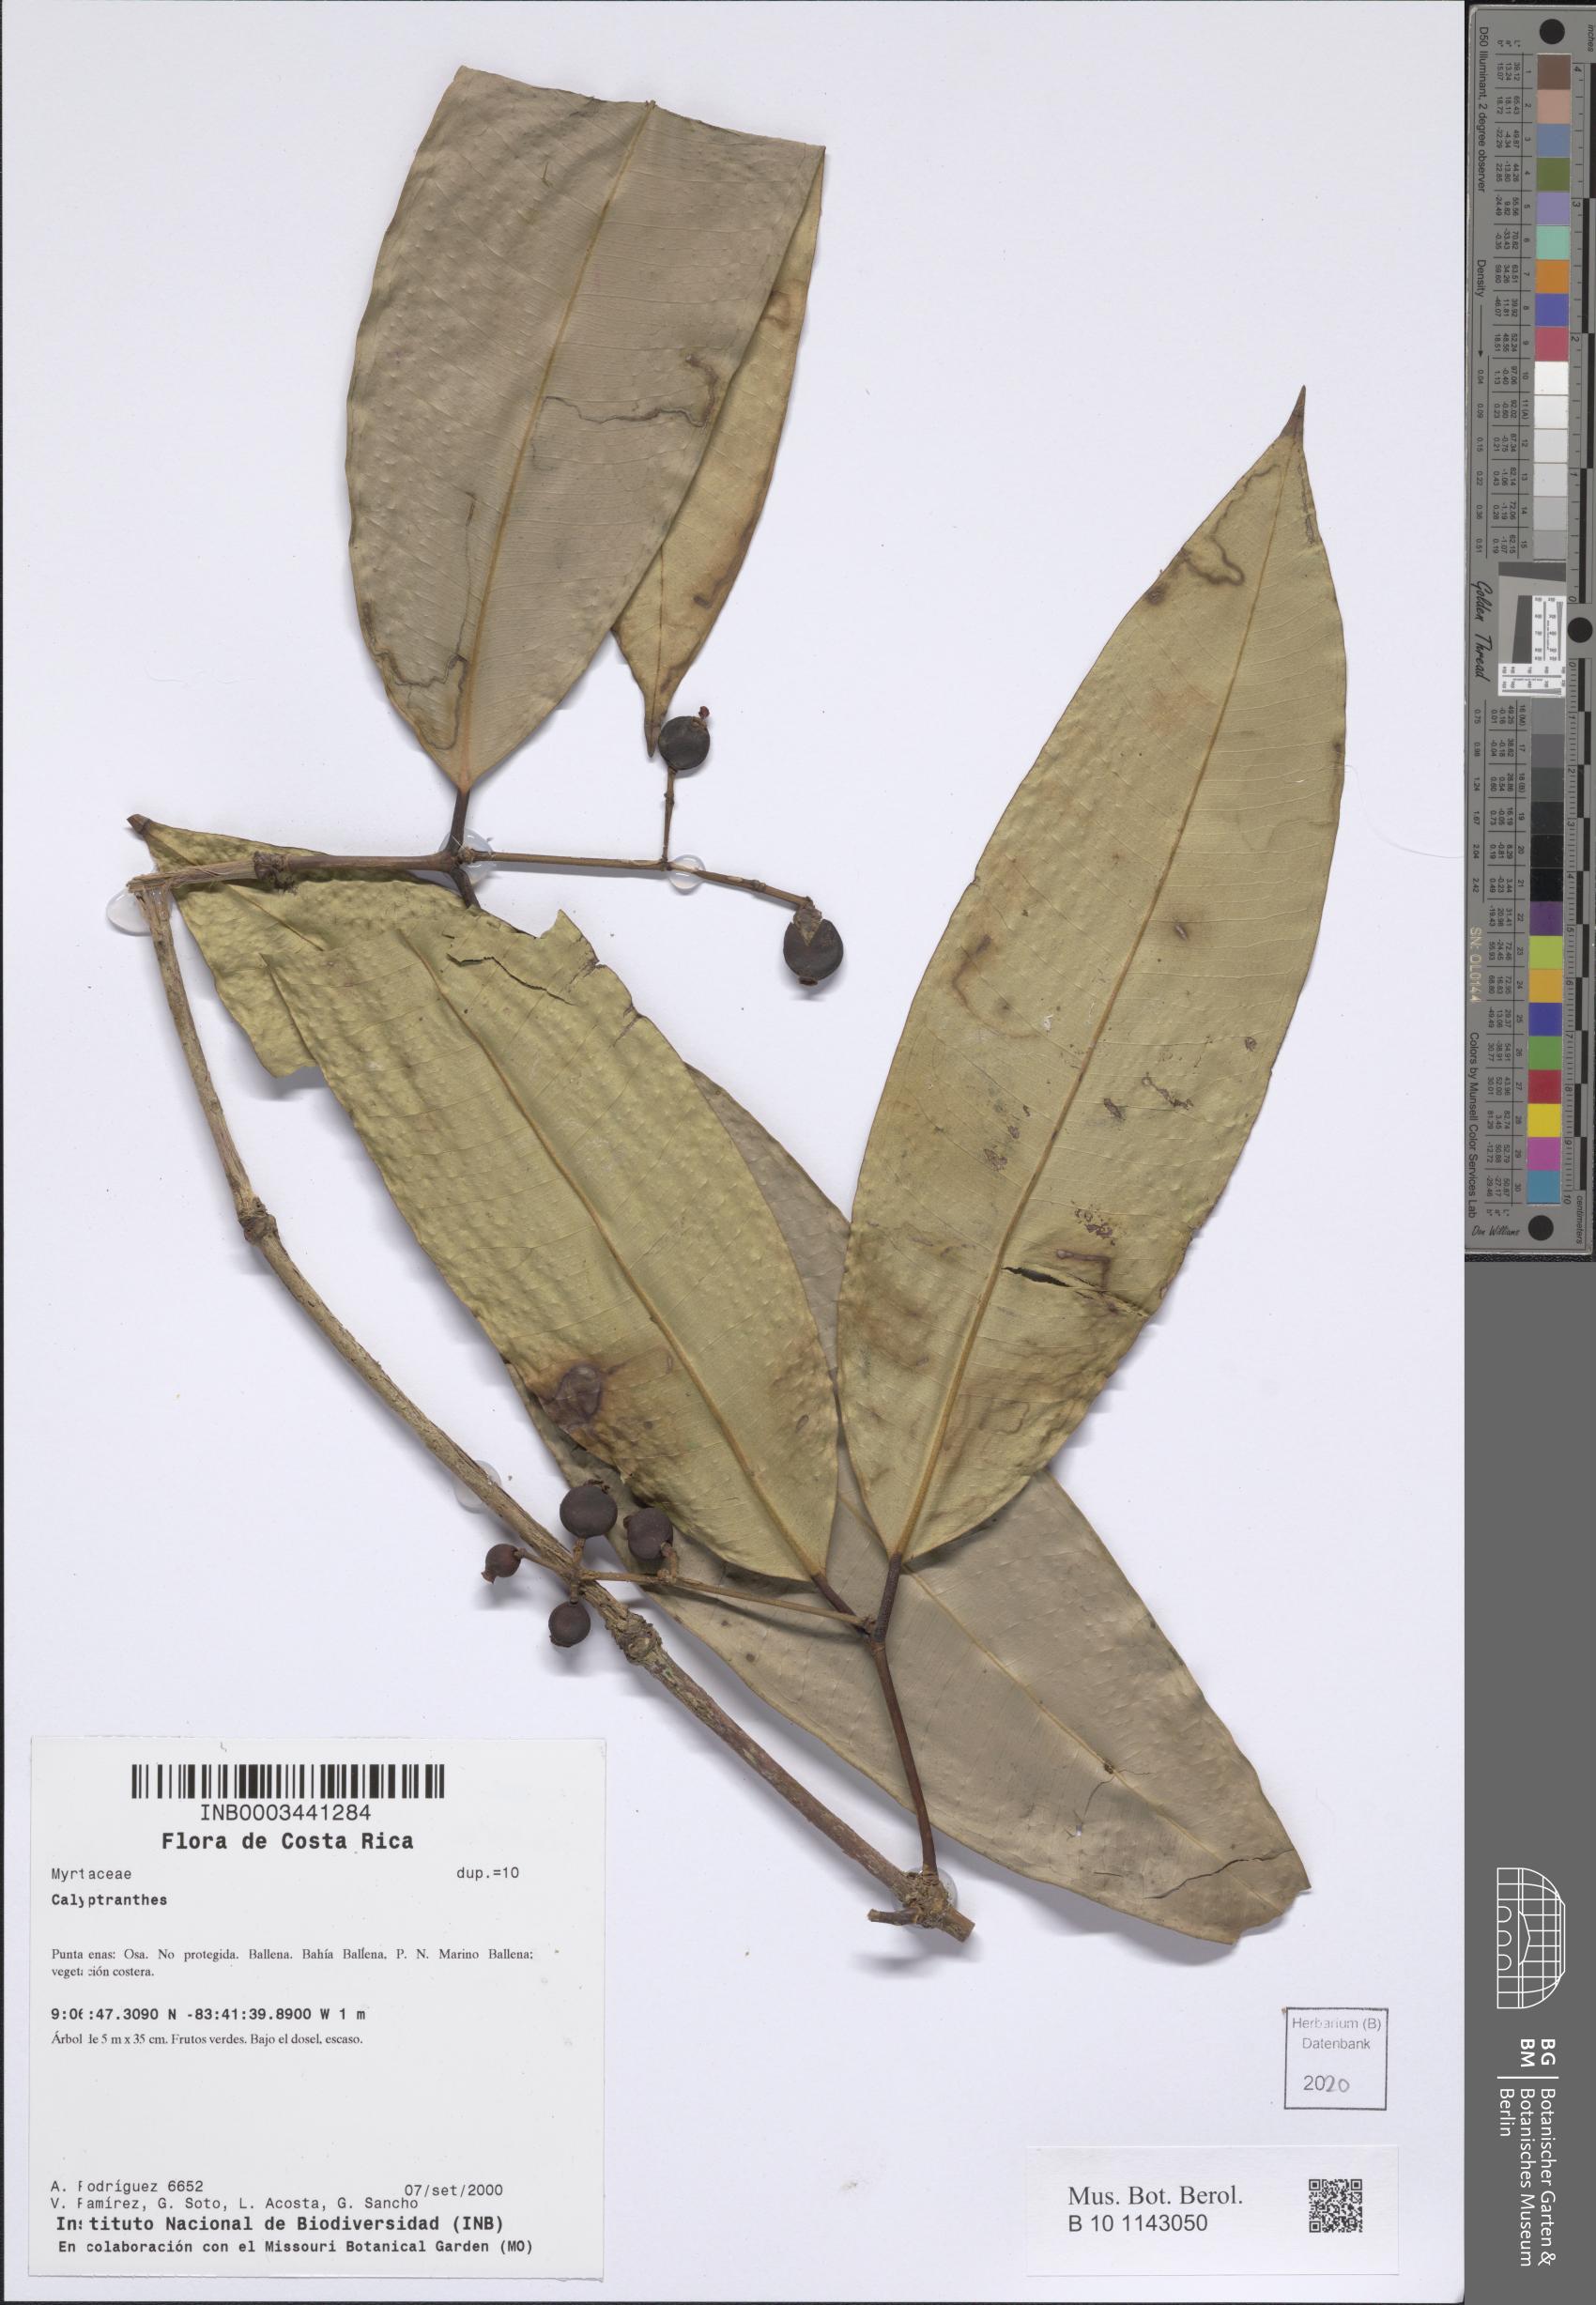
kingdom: Plantae
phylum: Tracheophyta
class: Magnoliopsida
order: Myrtales
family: Myrtaceae
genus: Calyptranthes
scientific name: Calyptranthes
